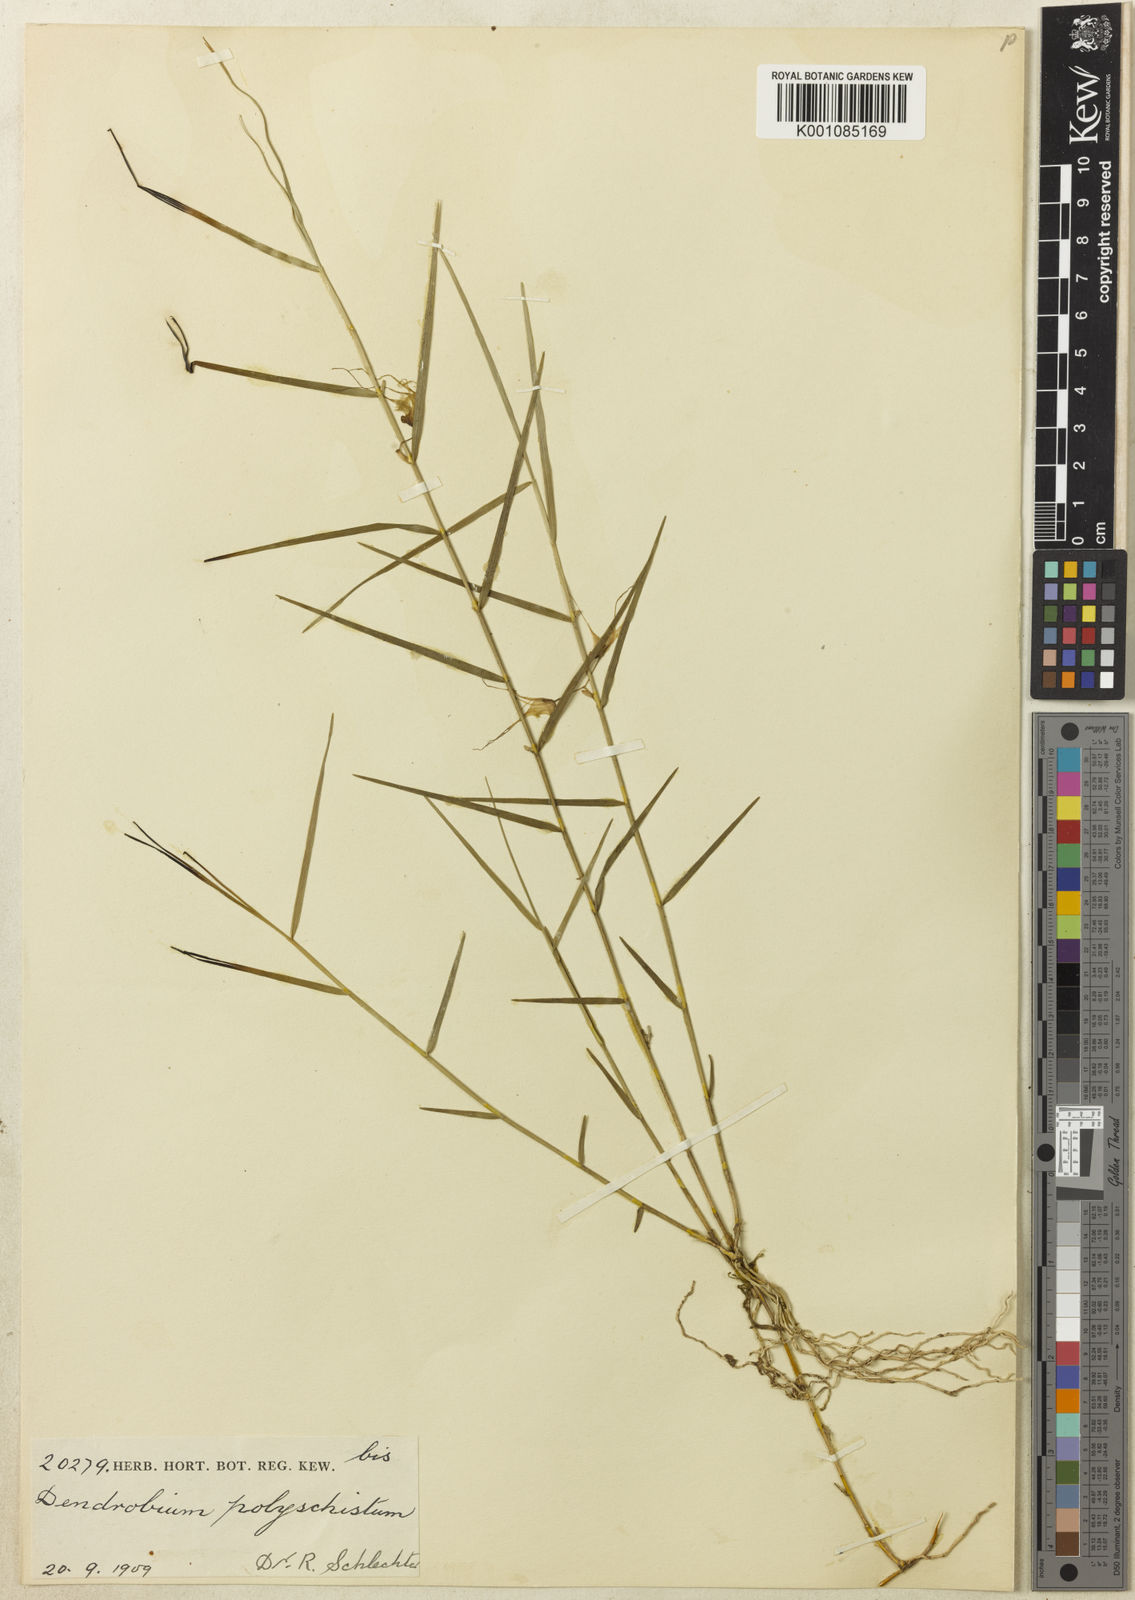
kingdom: Plantae
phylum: Tracheophyta
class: Liliopsida
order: Asparagales
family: Orchidaceae
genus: Dendrobium
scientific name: Dendrobium polyschistum
